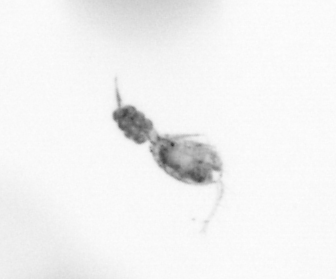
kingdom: Animalia
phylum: Arthropoda
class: Copepoda
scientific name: Copepoda
